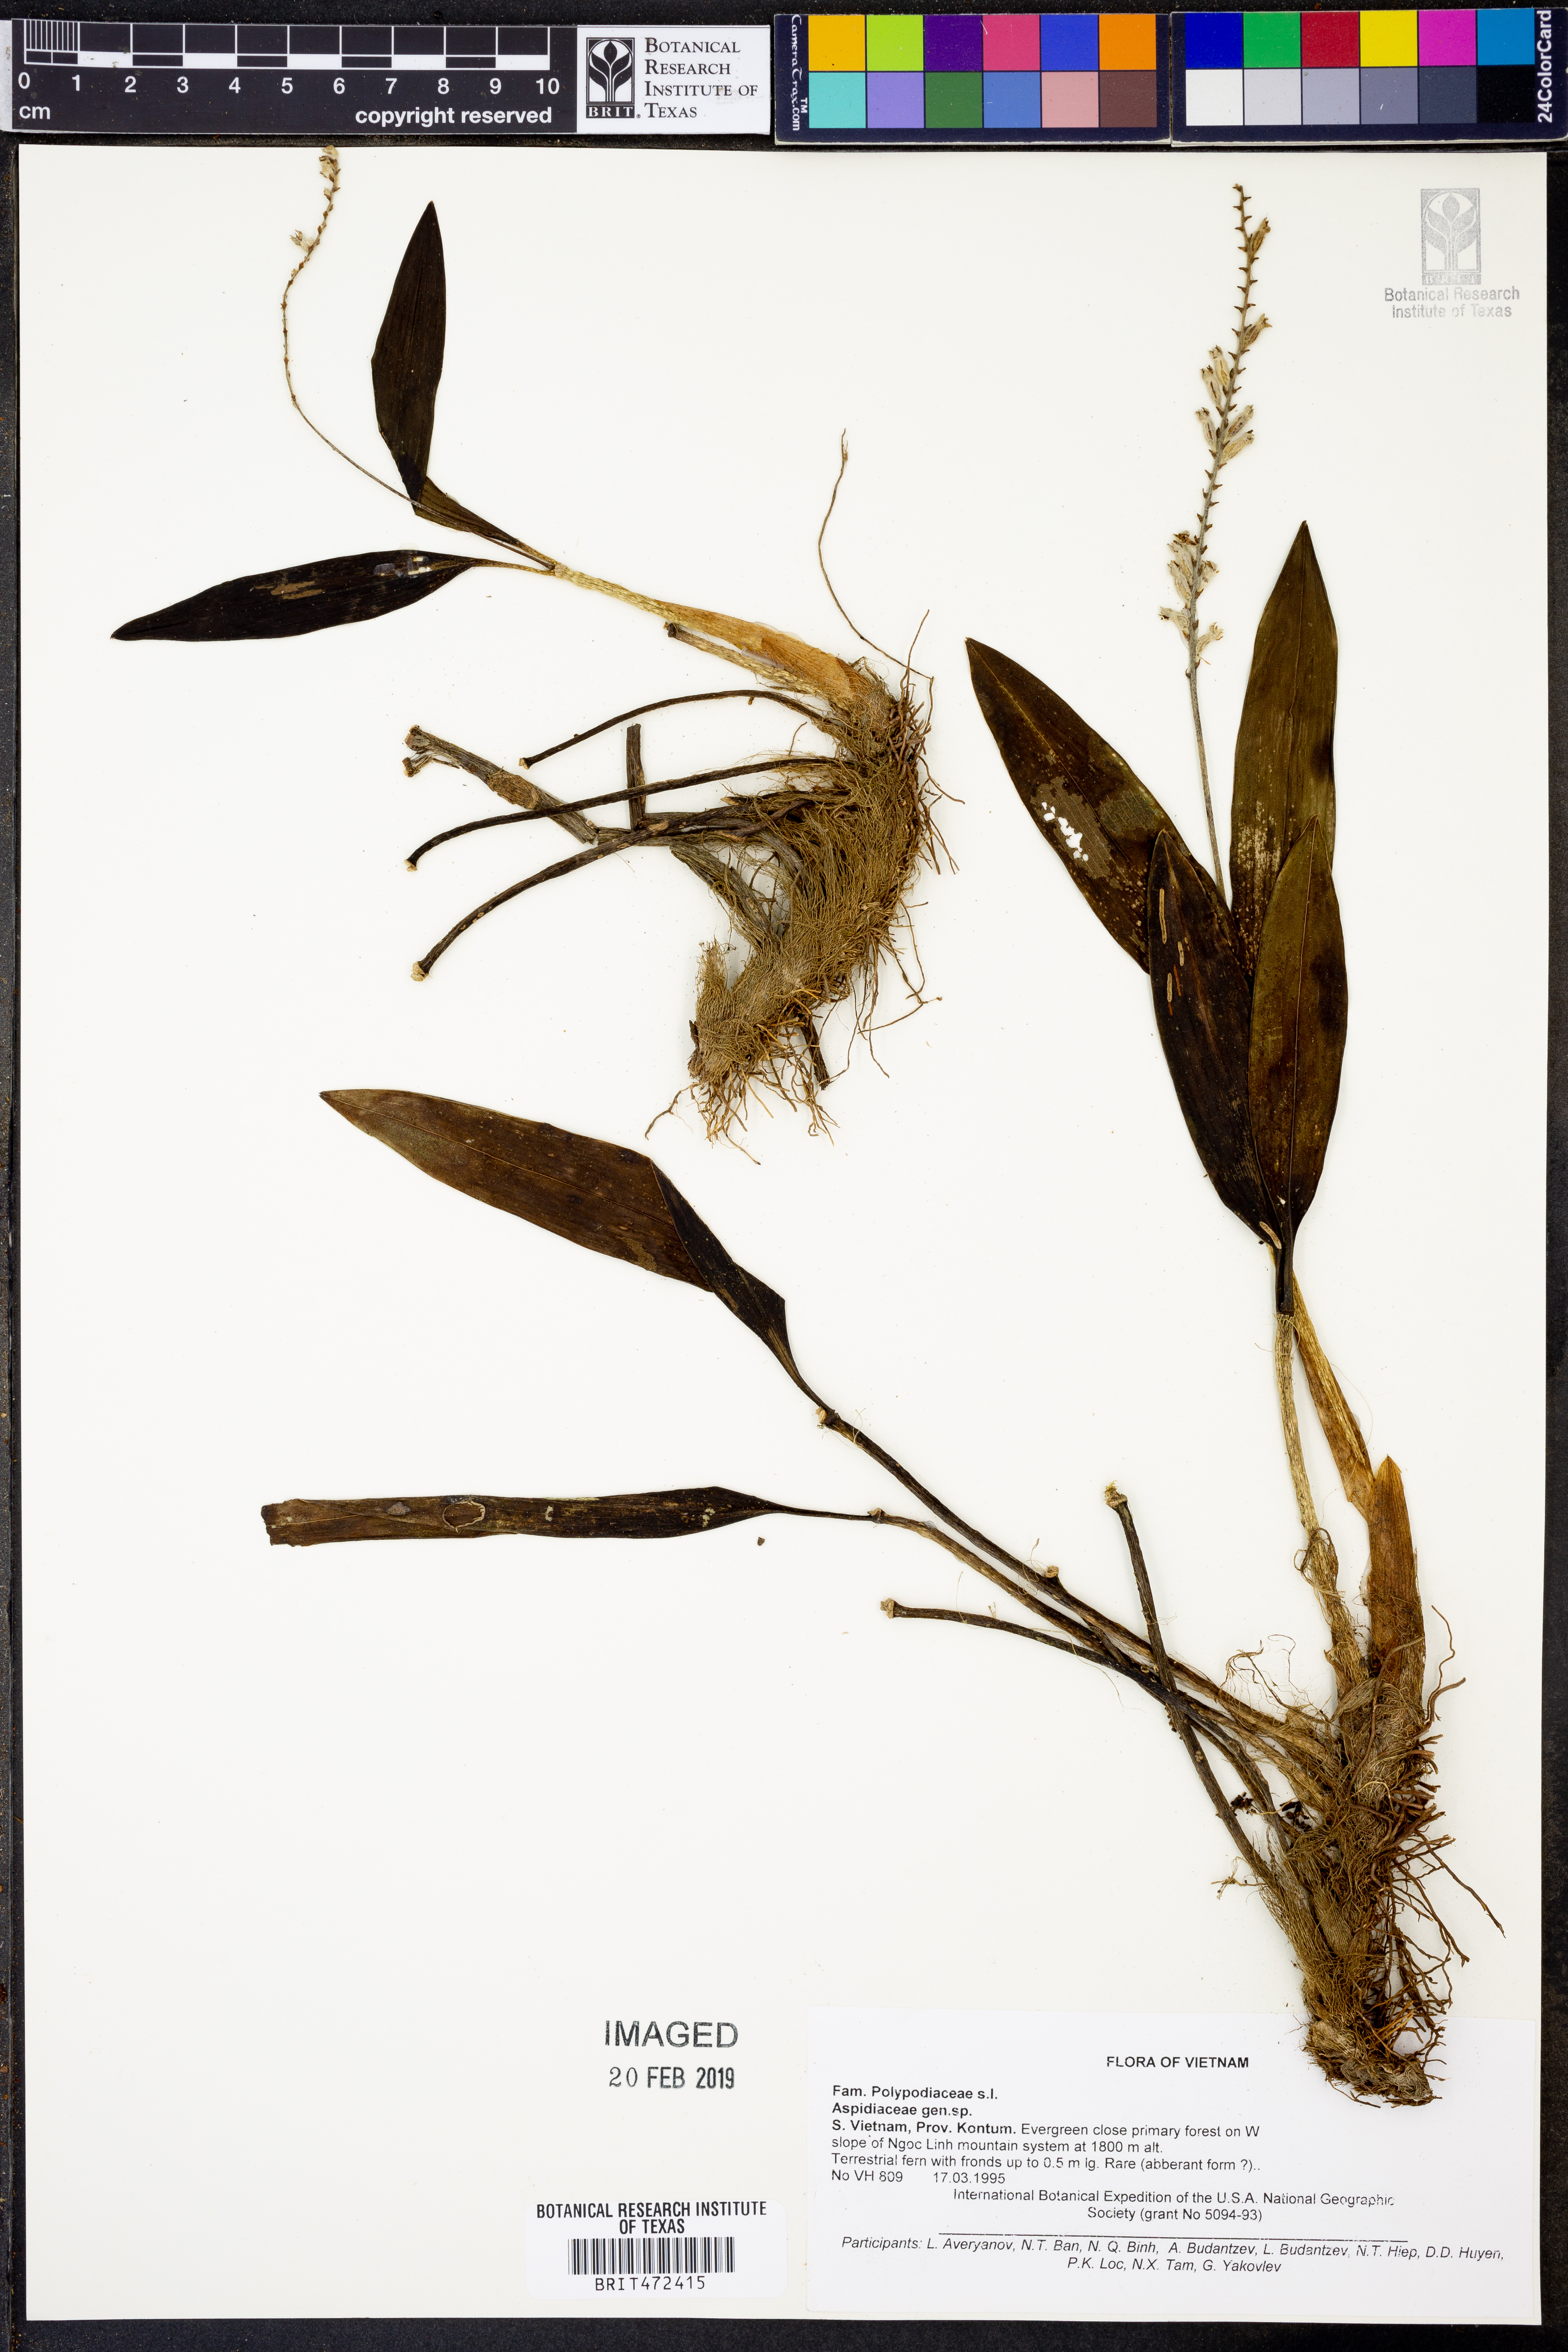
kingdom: Plantae
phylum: Tracheophyta
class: Liliopsida
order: Asparagales
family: Orchidaceae
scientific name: Orchidaceae
